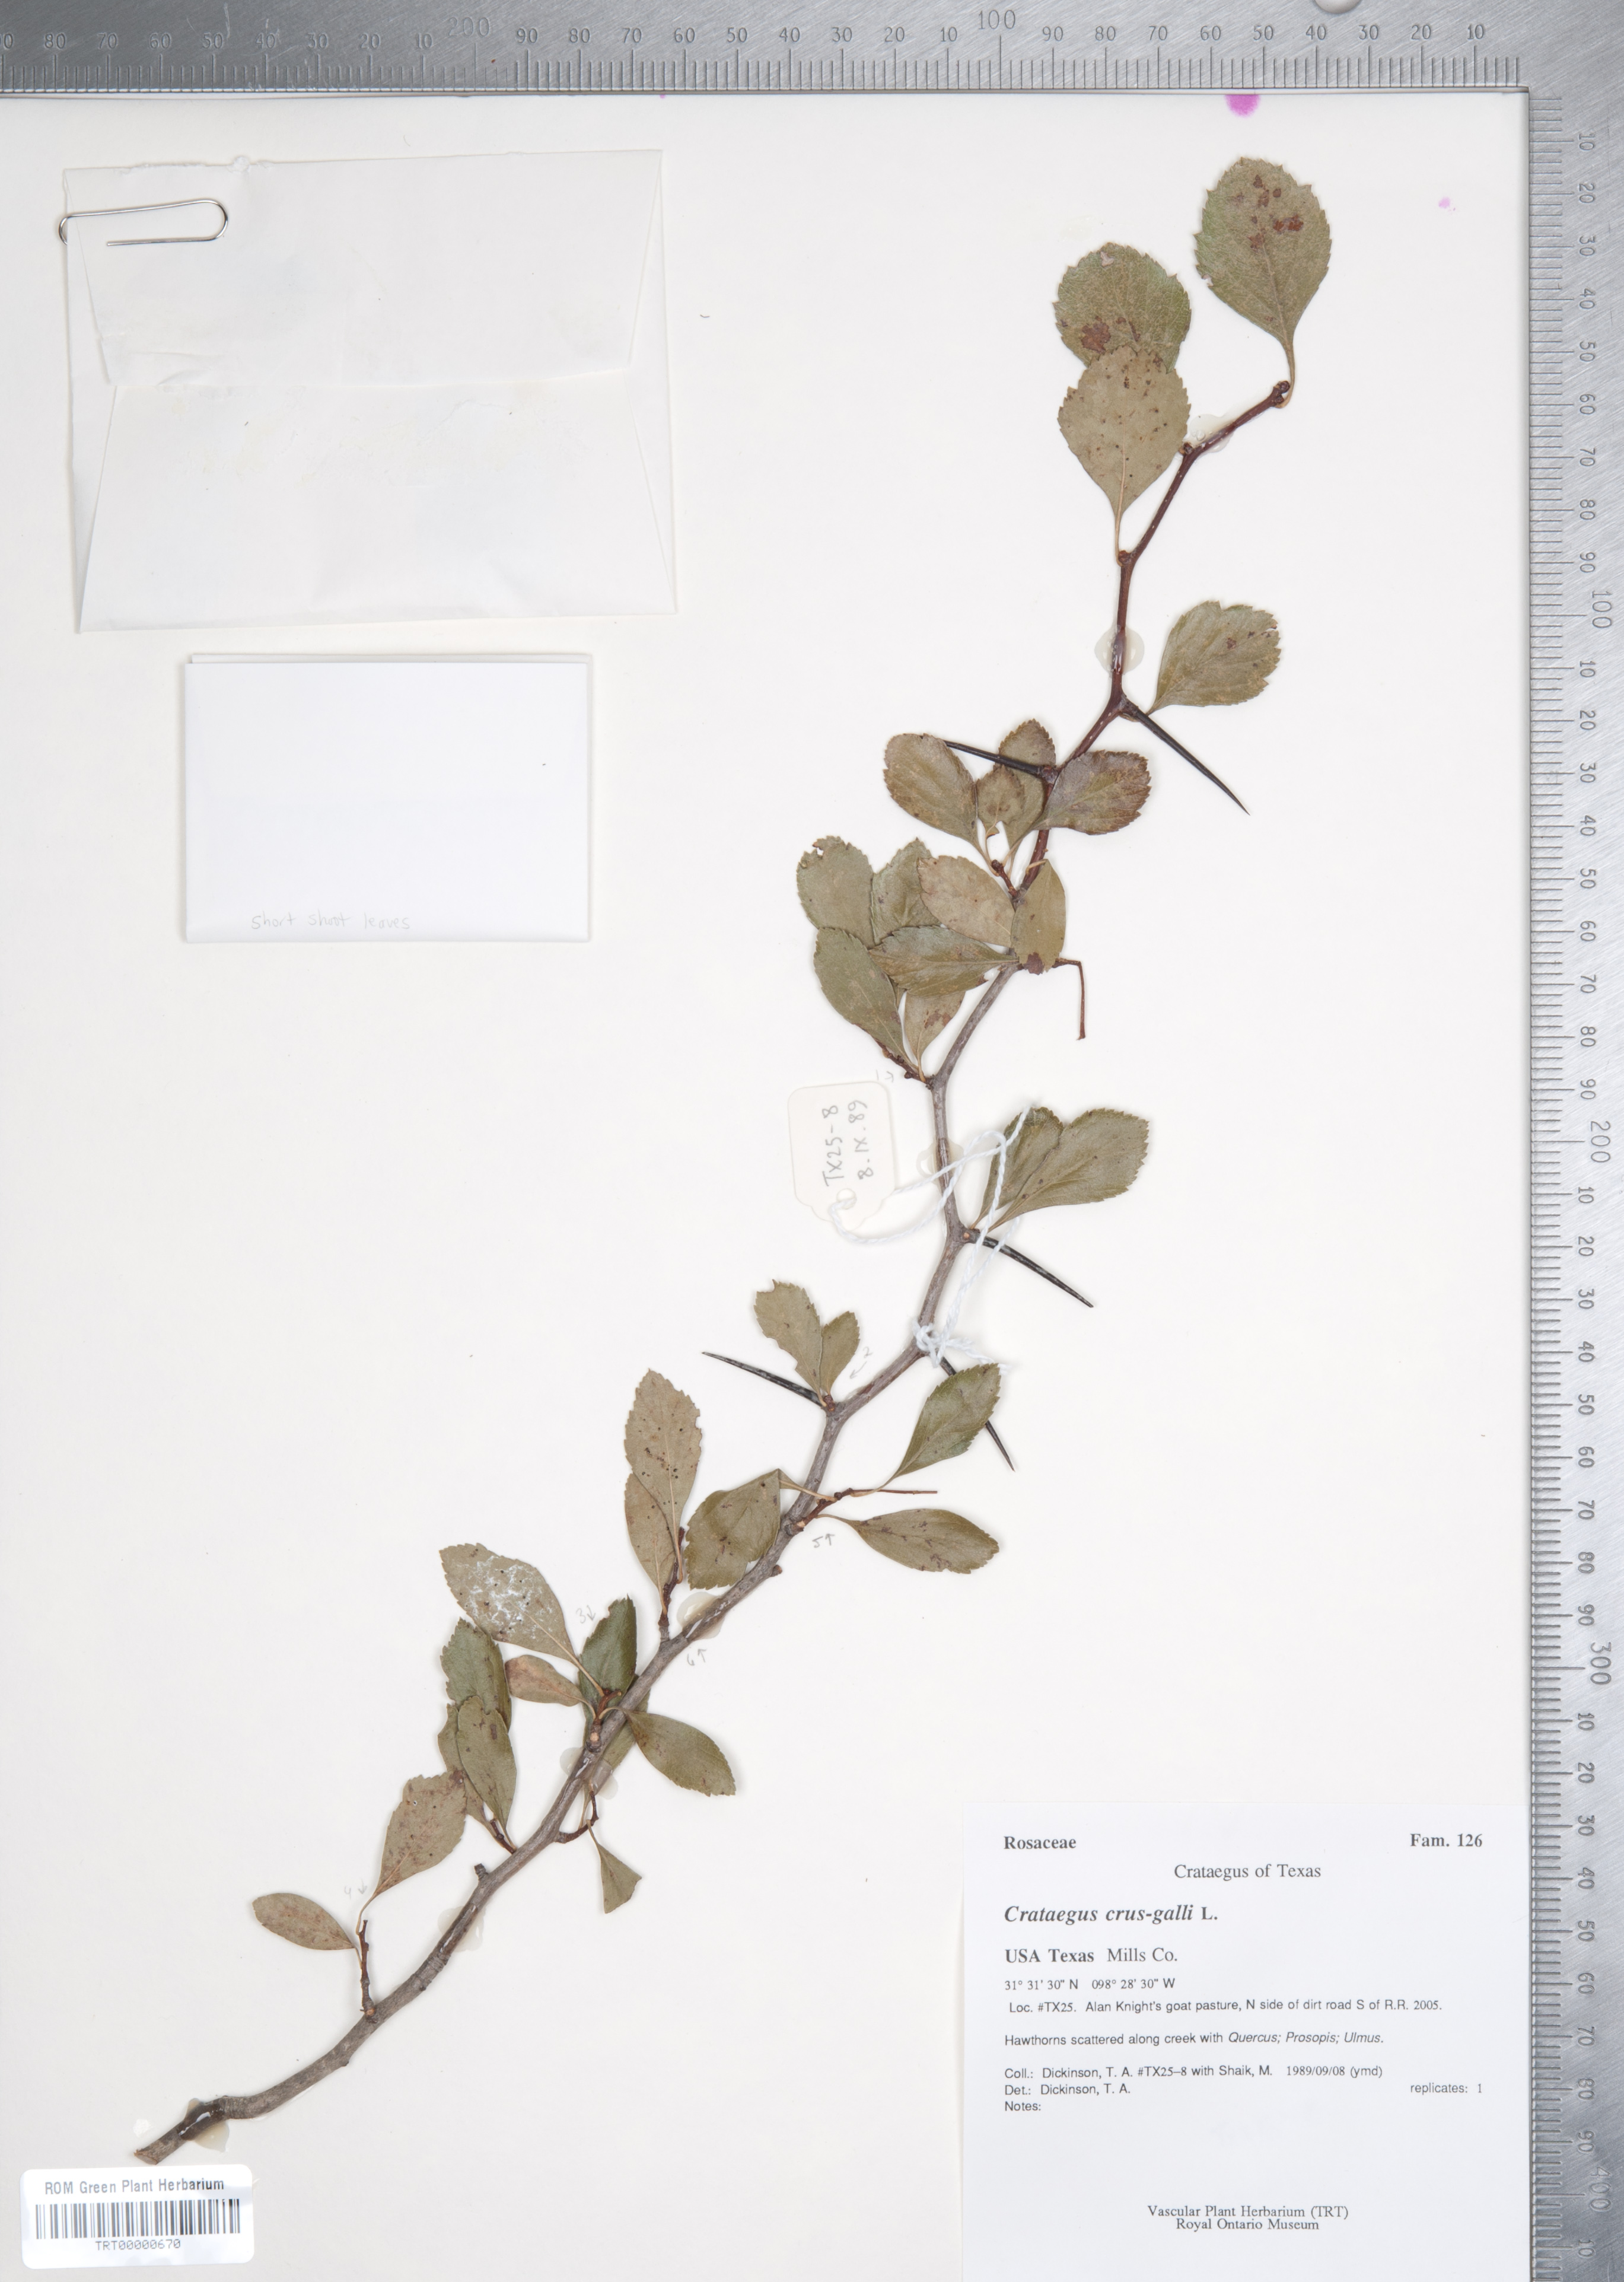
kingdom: Plantae
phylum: Tracheophyta
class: Magnoliopsida
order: Rosales
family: Rosaceae
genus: Crataegus
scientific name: Crataegus crus-galli
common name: Cockspurthorn
